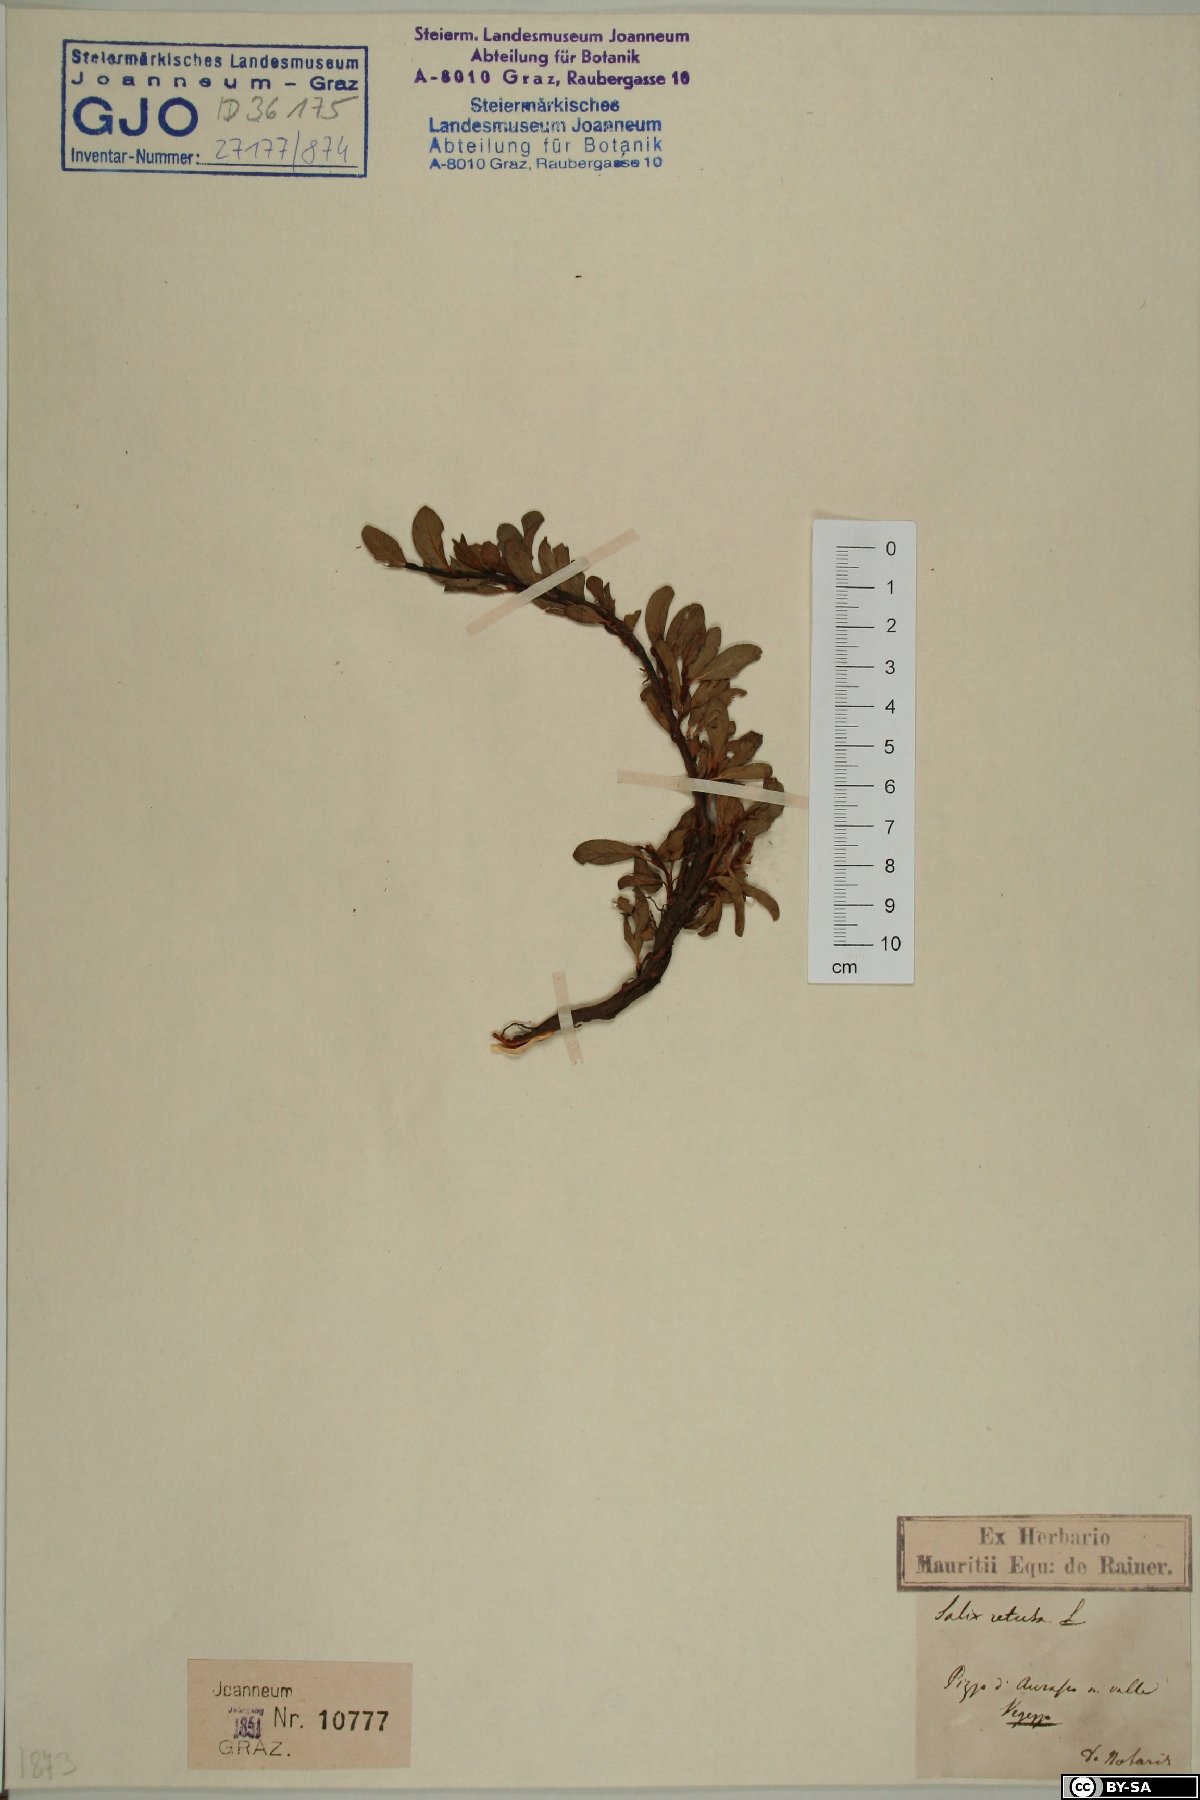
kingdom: Plantae
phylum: Tracheophyta
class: Magnoliopsida
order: Malpighiales
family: Salicaceae
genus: Salix
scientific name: Salix retusa
